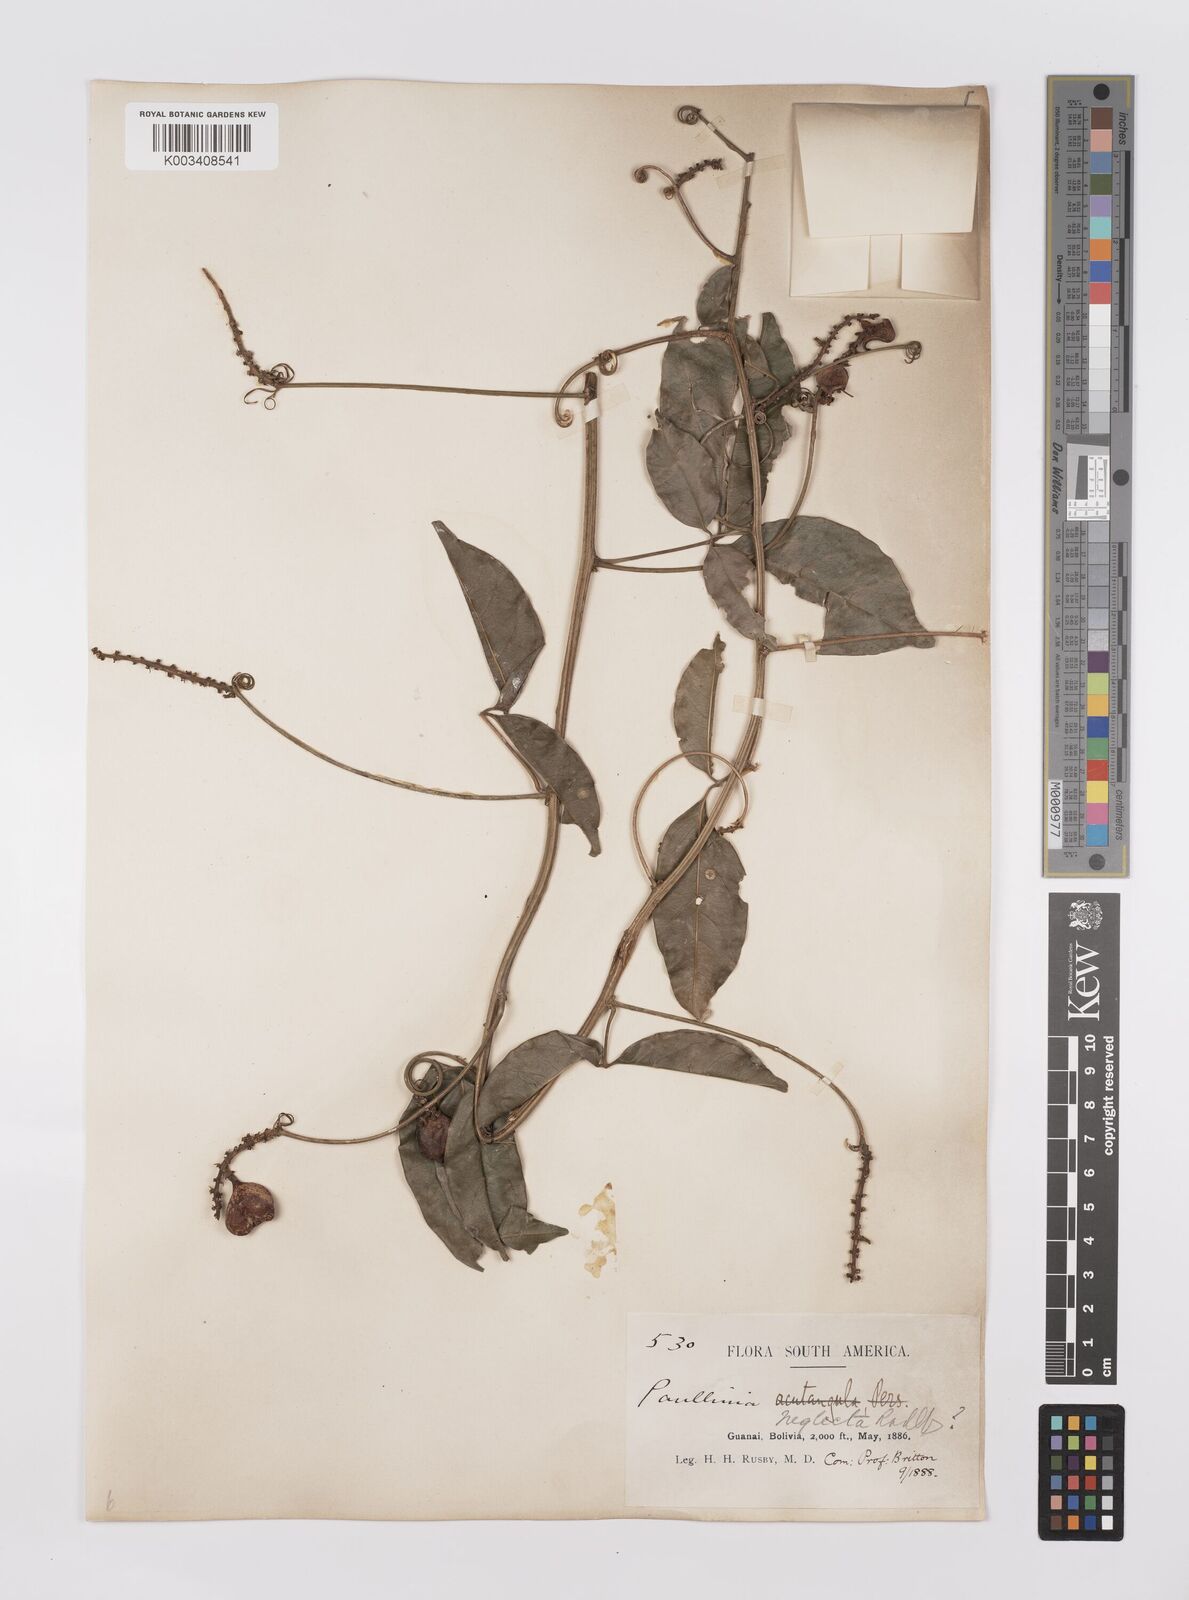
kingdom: Plantae
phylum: Tracheophyta
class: Magnoliopsida
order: Sapindales
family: Sapindaceae
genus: Paullinia
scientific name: Paullinia elegans
